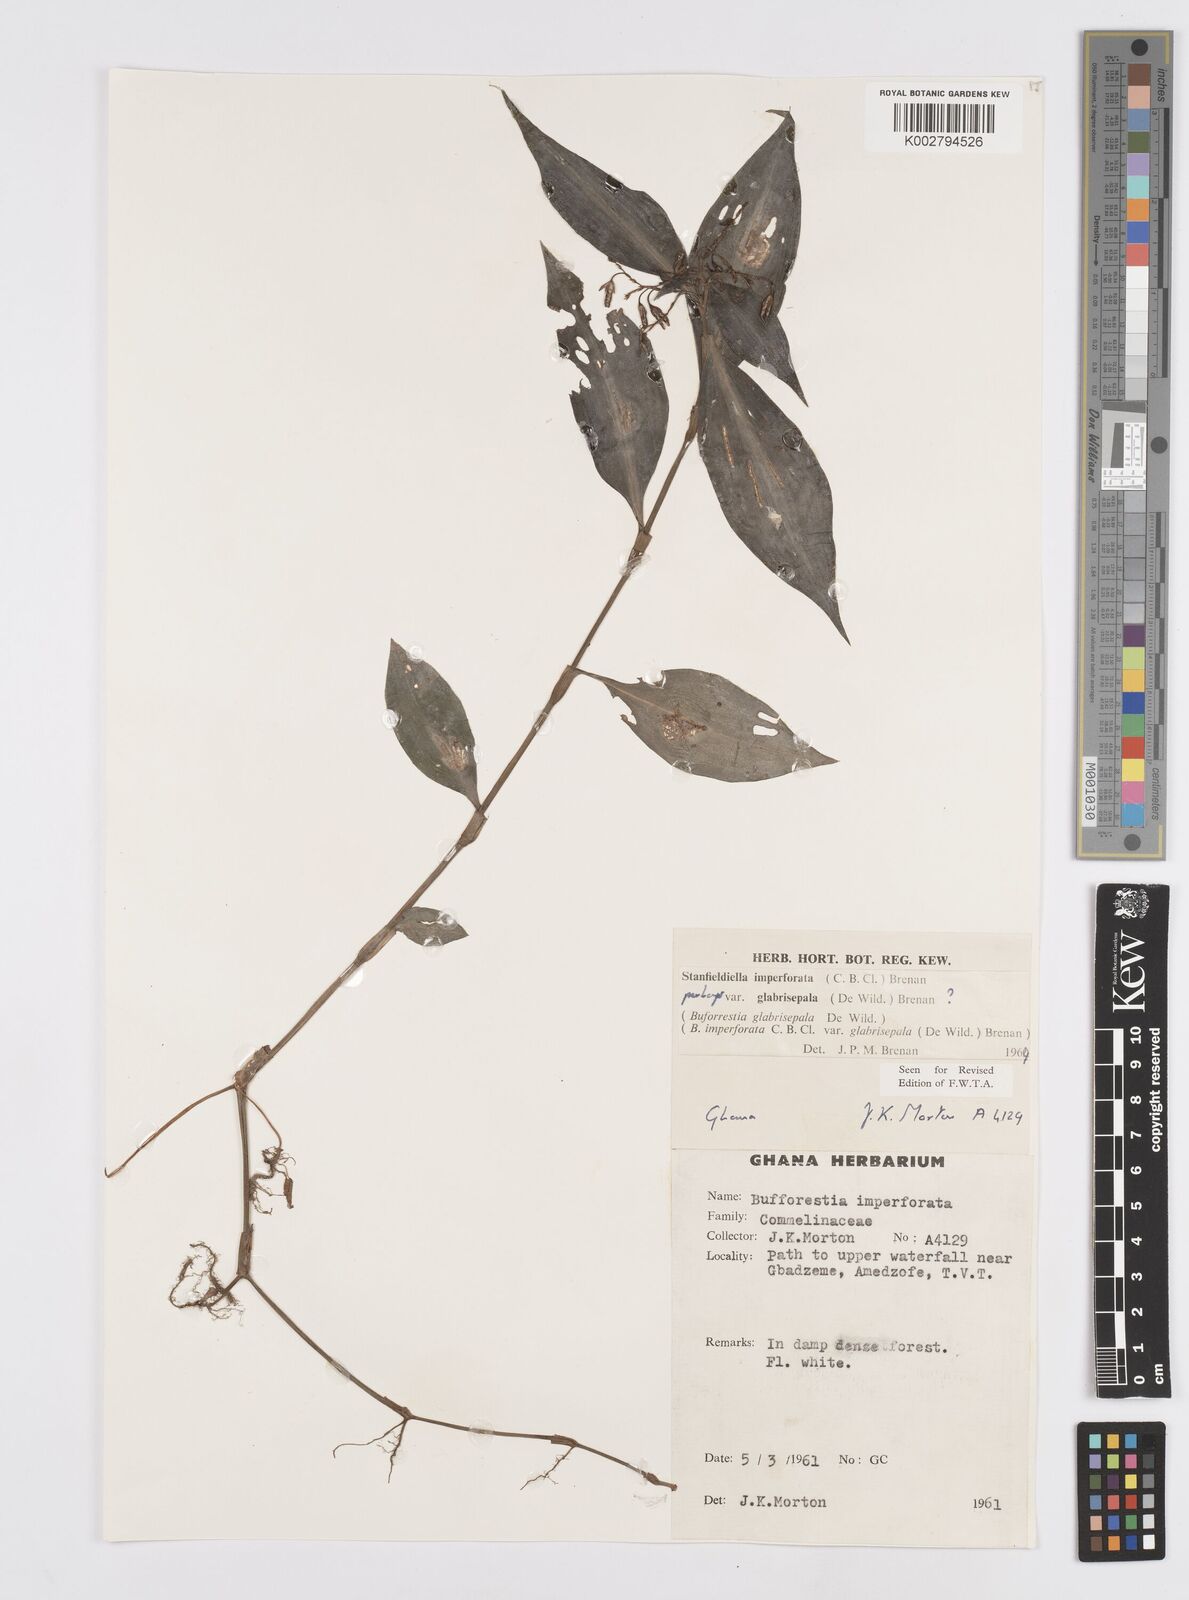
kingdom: Plantae
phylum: Tracheophyta
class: Liliopsida
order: Commelinales
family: Commelinaceae
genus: Stanfieldiella
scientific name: Stanfieldiella imperforata
